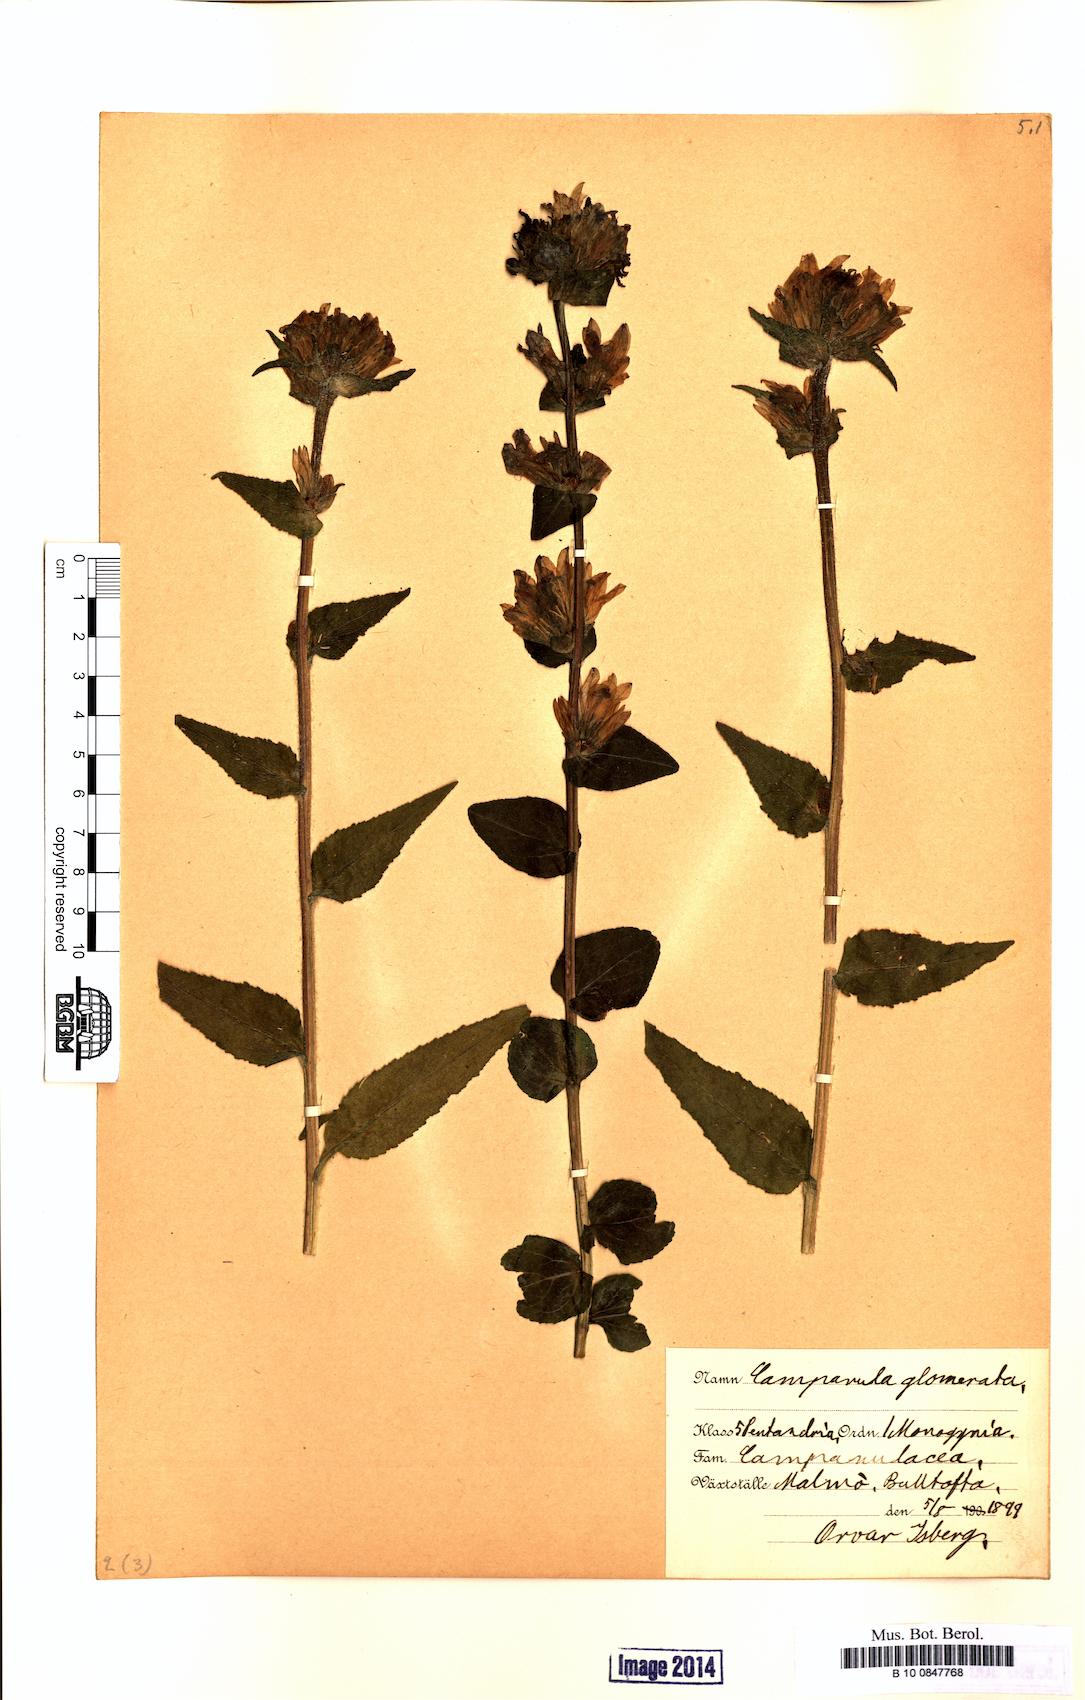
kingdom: Plantae
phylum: Tracheophyta
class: Magnoliopsida
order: Asterales
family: Campanulaceae
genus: Campanula
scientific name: Campanula glomerata
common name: Clustered bellflower
